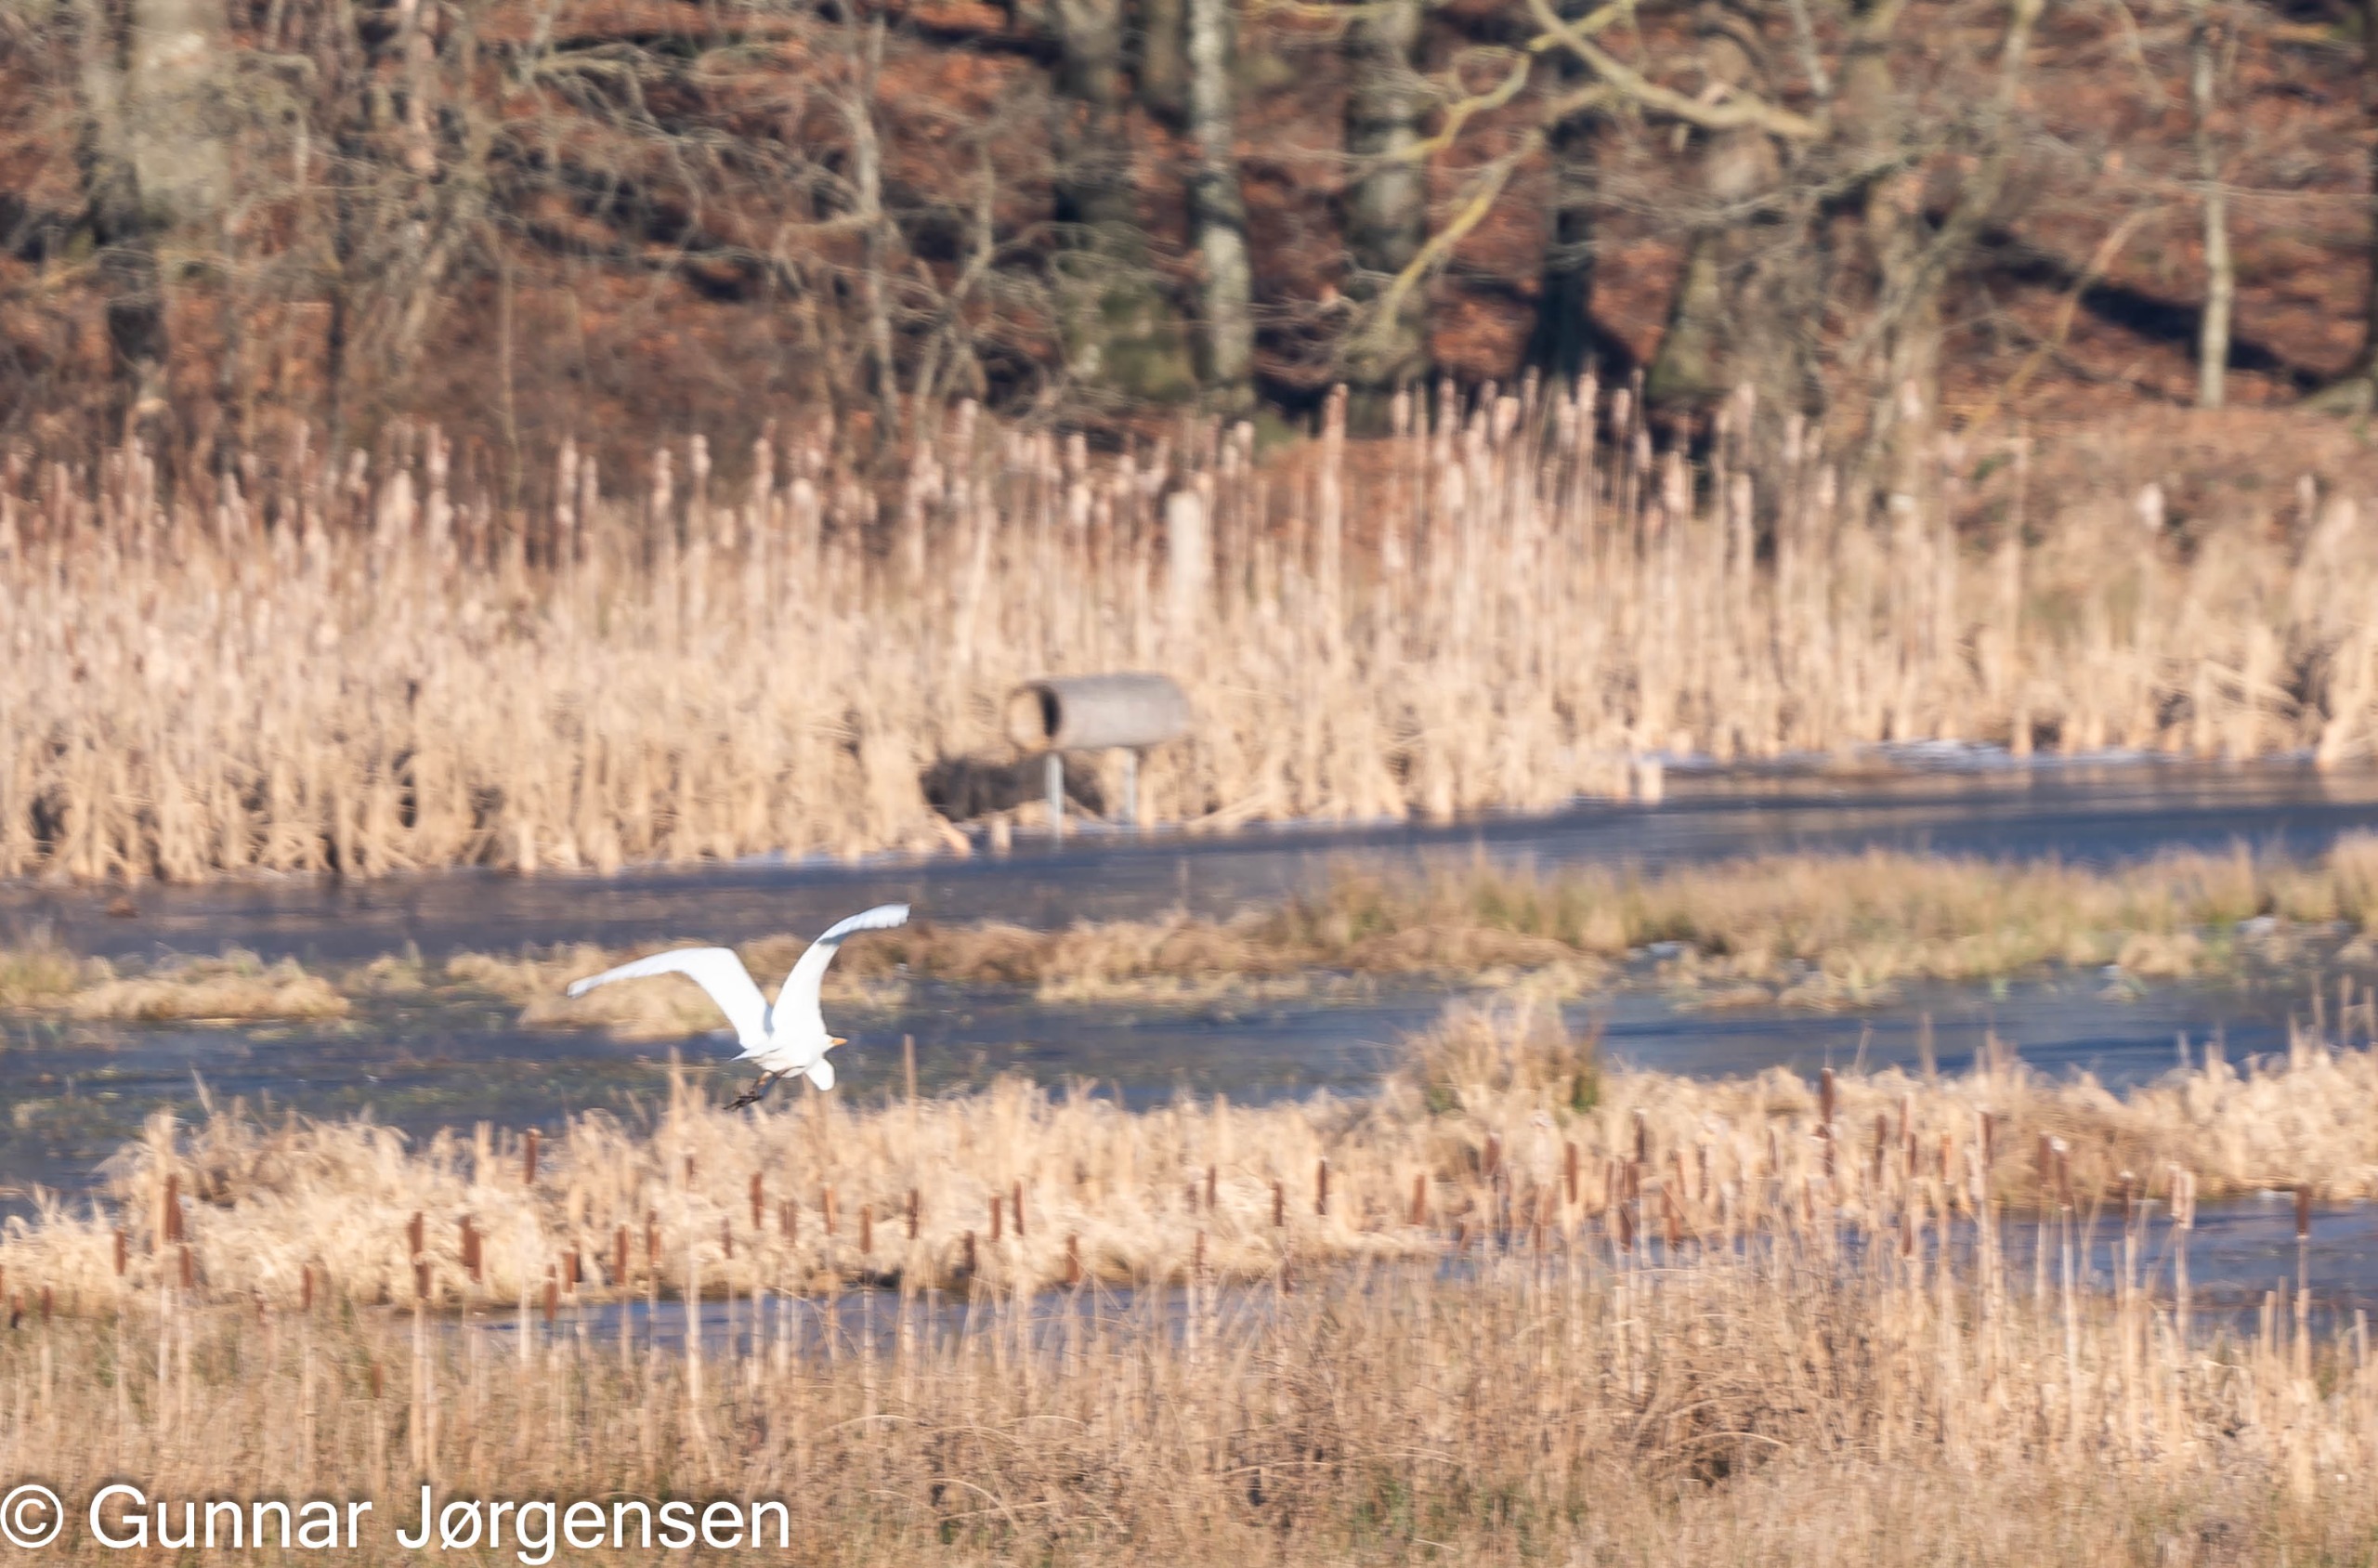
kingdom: Animalia
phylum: Chordata
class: Aves
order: Pelecaniformes
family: Ardeidae
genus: Ardea
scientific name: Ardea alba
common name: Sølvhejre
